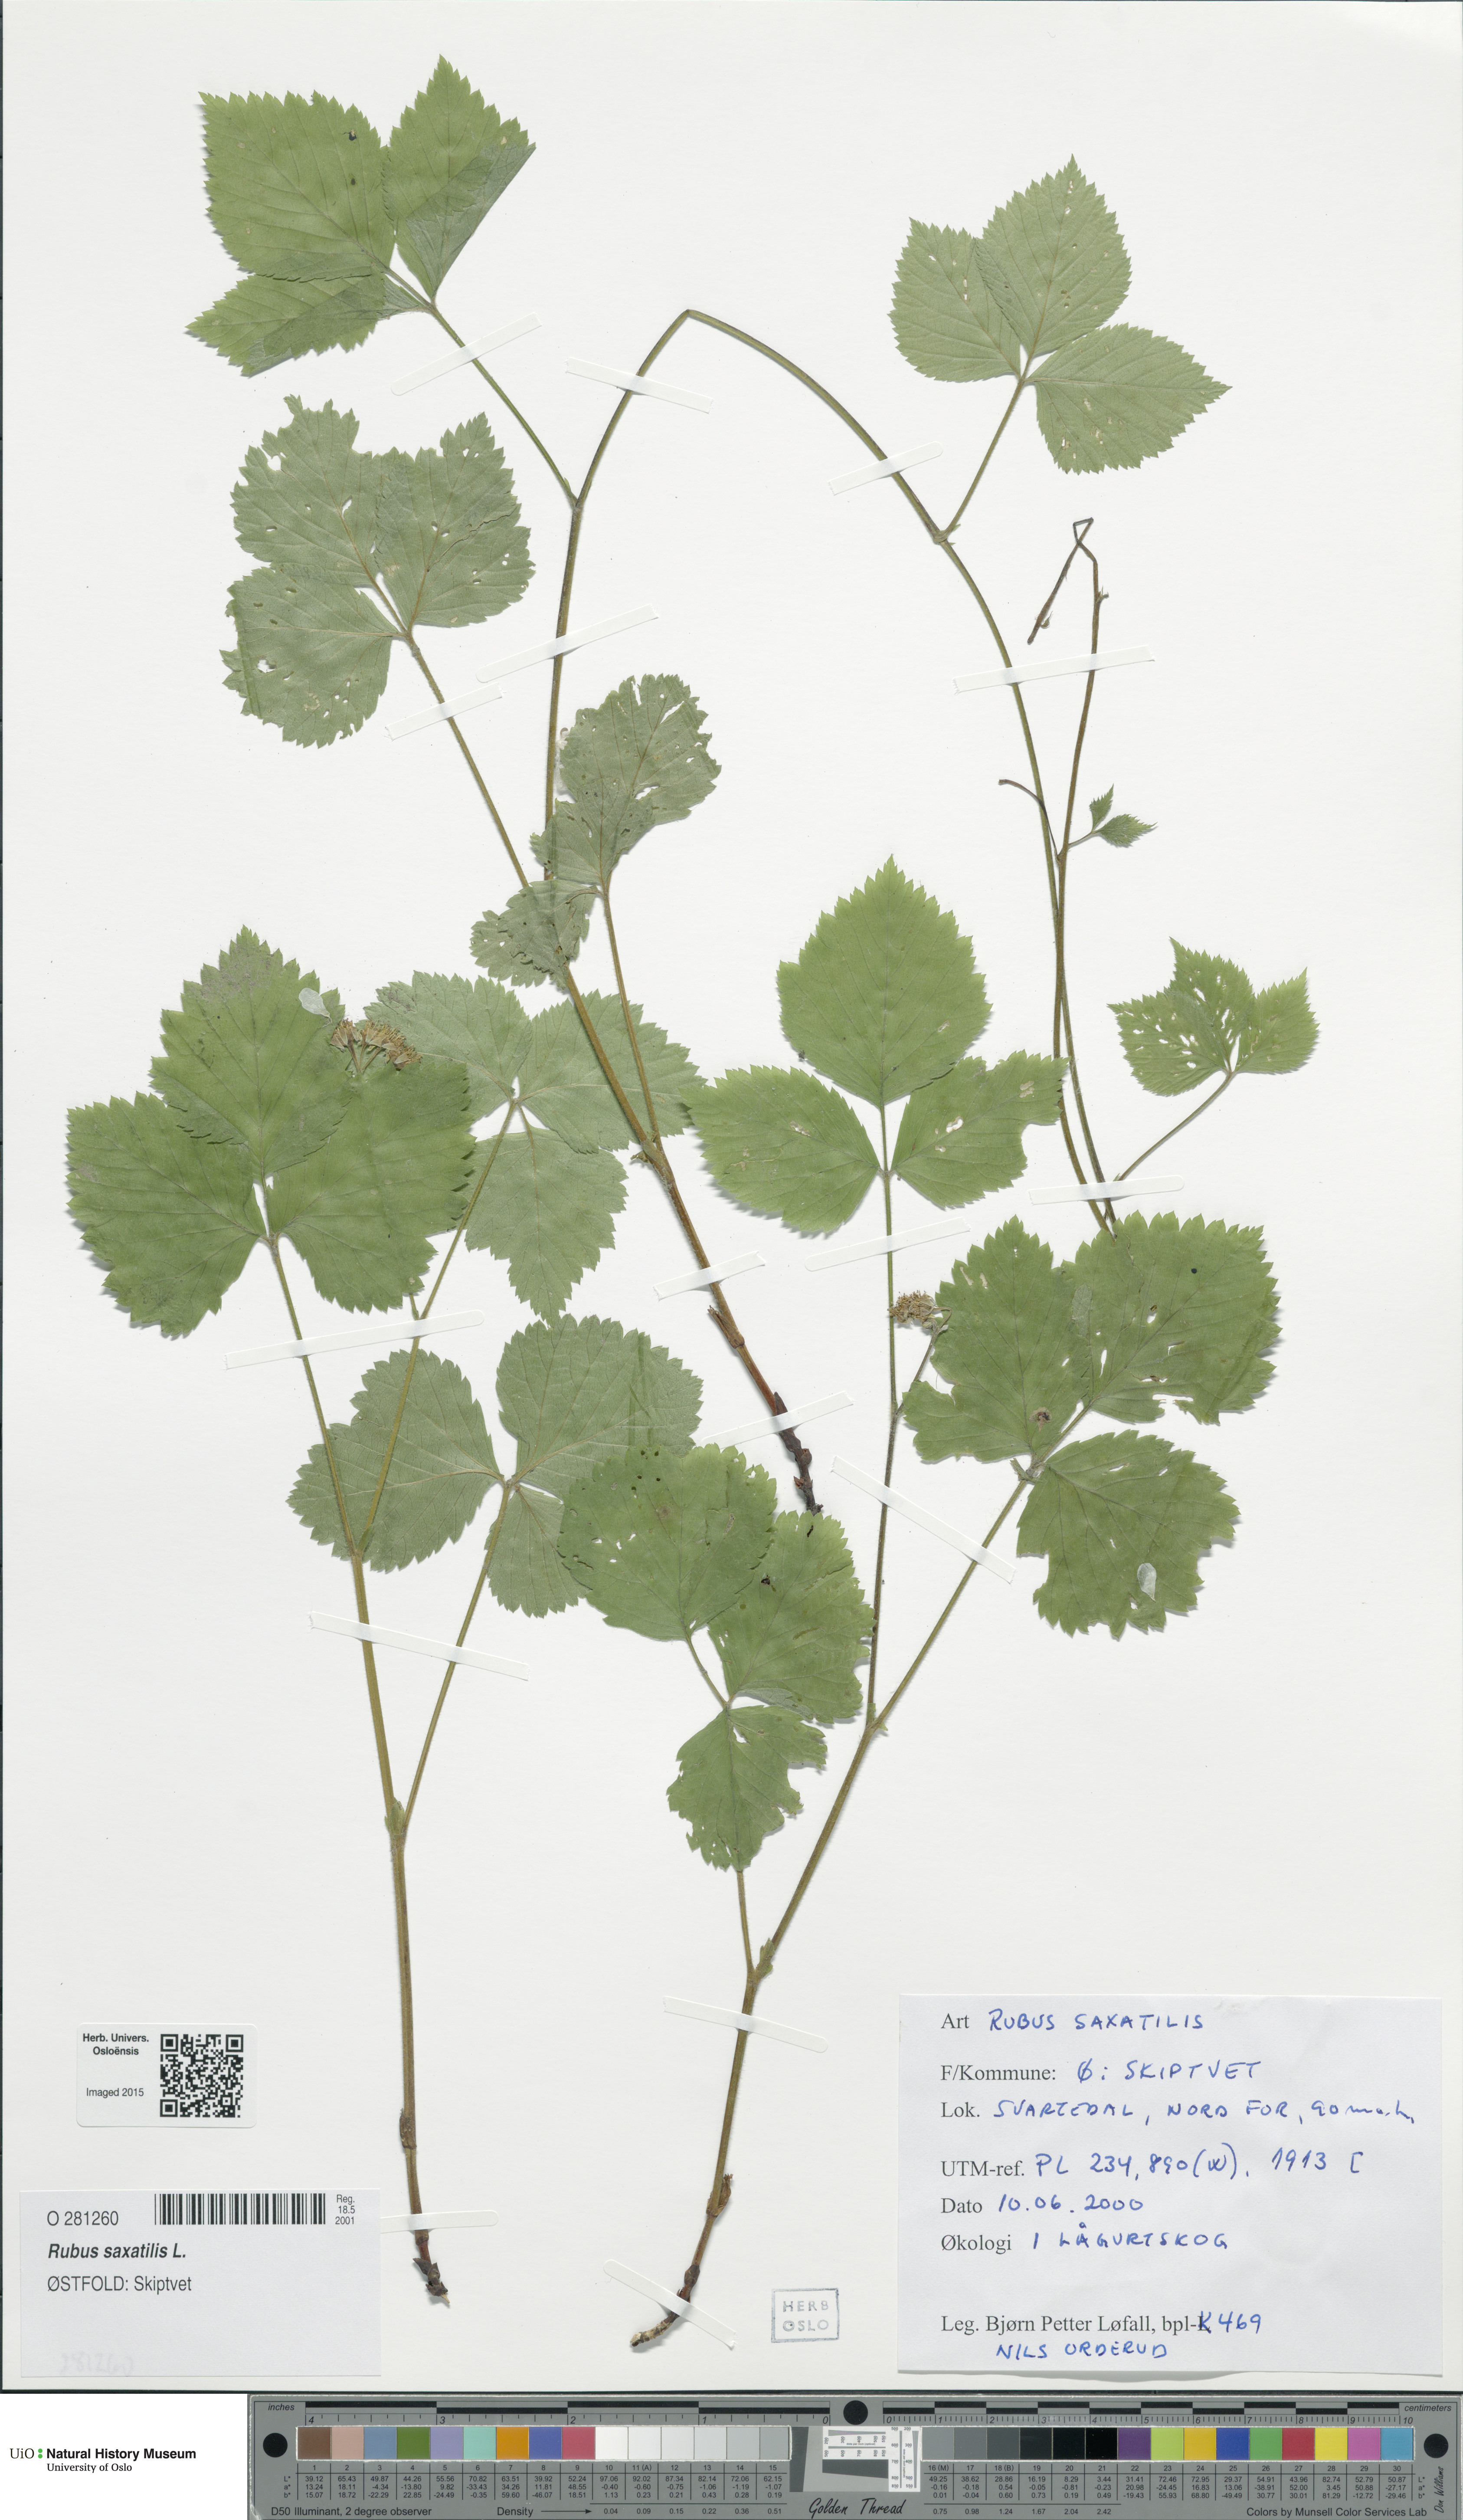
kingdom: Plantae
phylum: Tracheophyta
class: Magnoliopsida
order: Rosales
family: Rosaceae
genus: Rubus
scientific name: Rubus saxatilis
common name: Stone bramble
